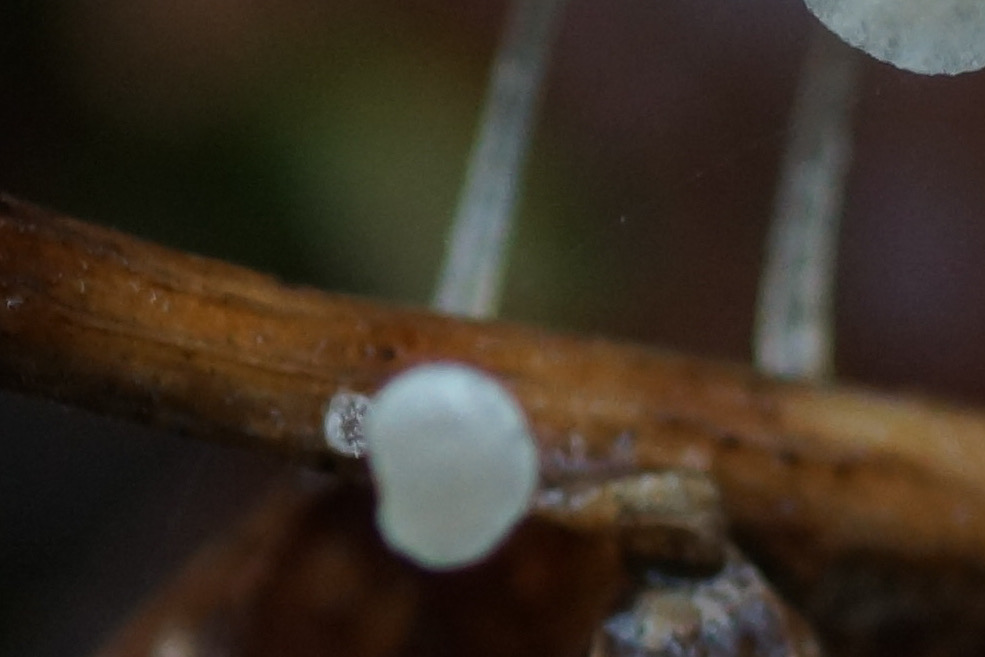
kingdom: Fungi
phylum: Basidiomycota
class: Agaricomycetes
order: Agaricales
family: Mycenaceae
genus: Mycena
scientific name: Mycena mucor
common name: frynseskivet huesvamp
